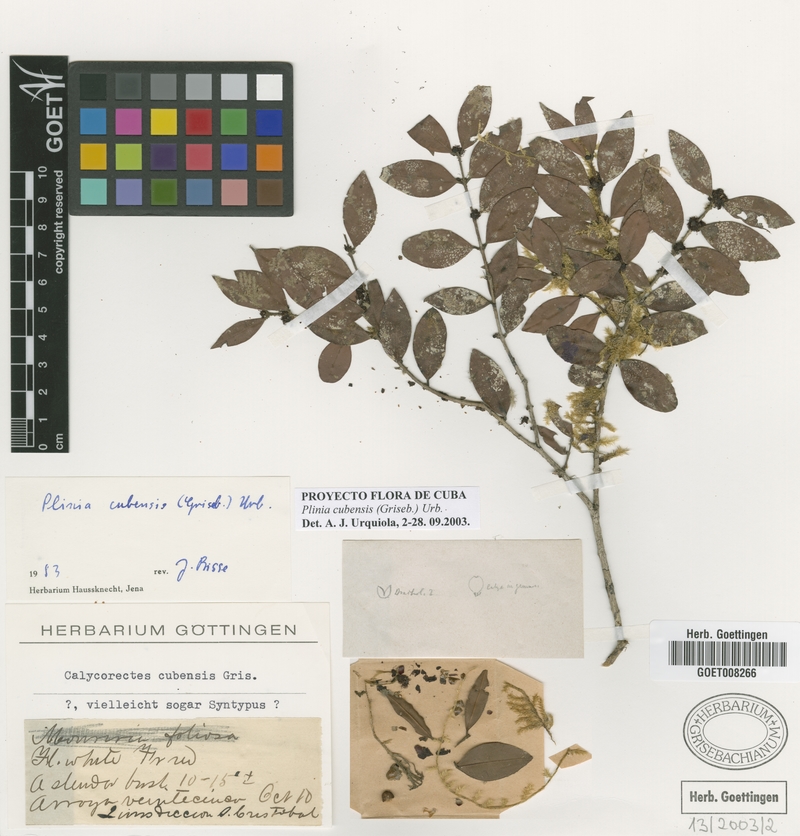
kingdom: Plantae
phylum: Tracheophyta
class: Magnoliopsida
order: Myrtales
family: Myrtaceae
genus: Myrciaria
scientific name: Myrciaria floribunda
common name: Guavaberry
